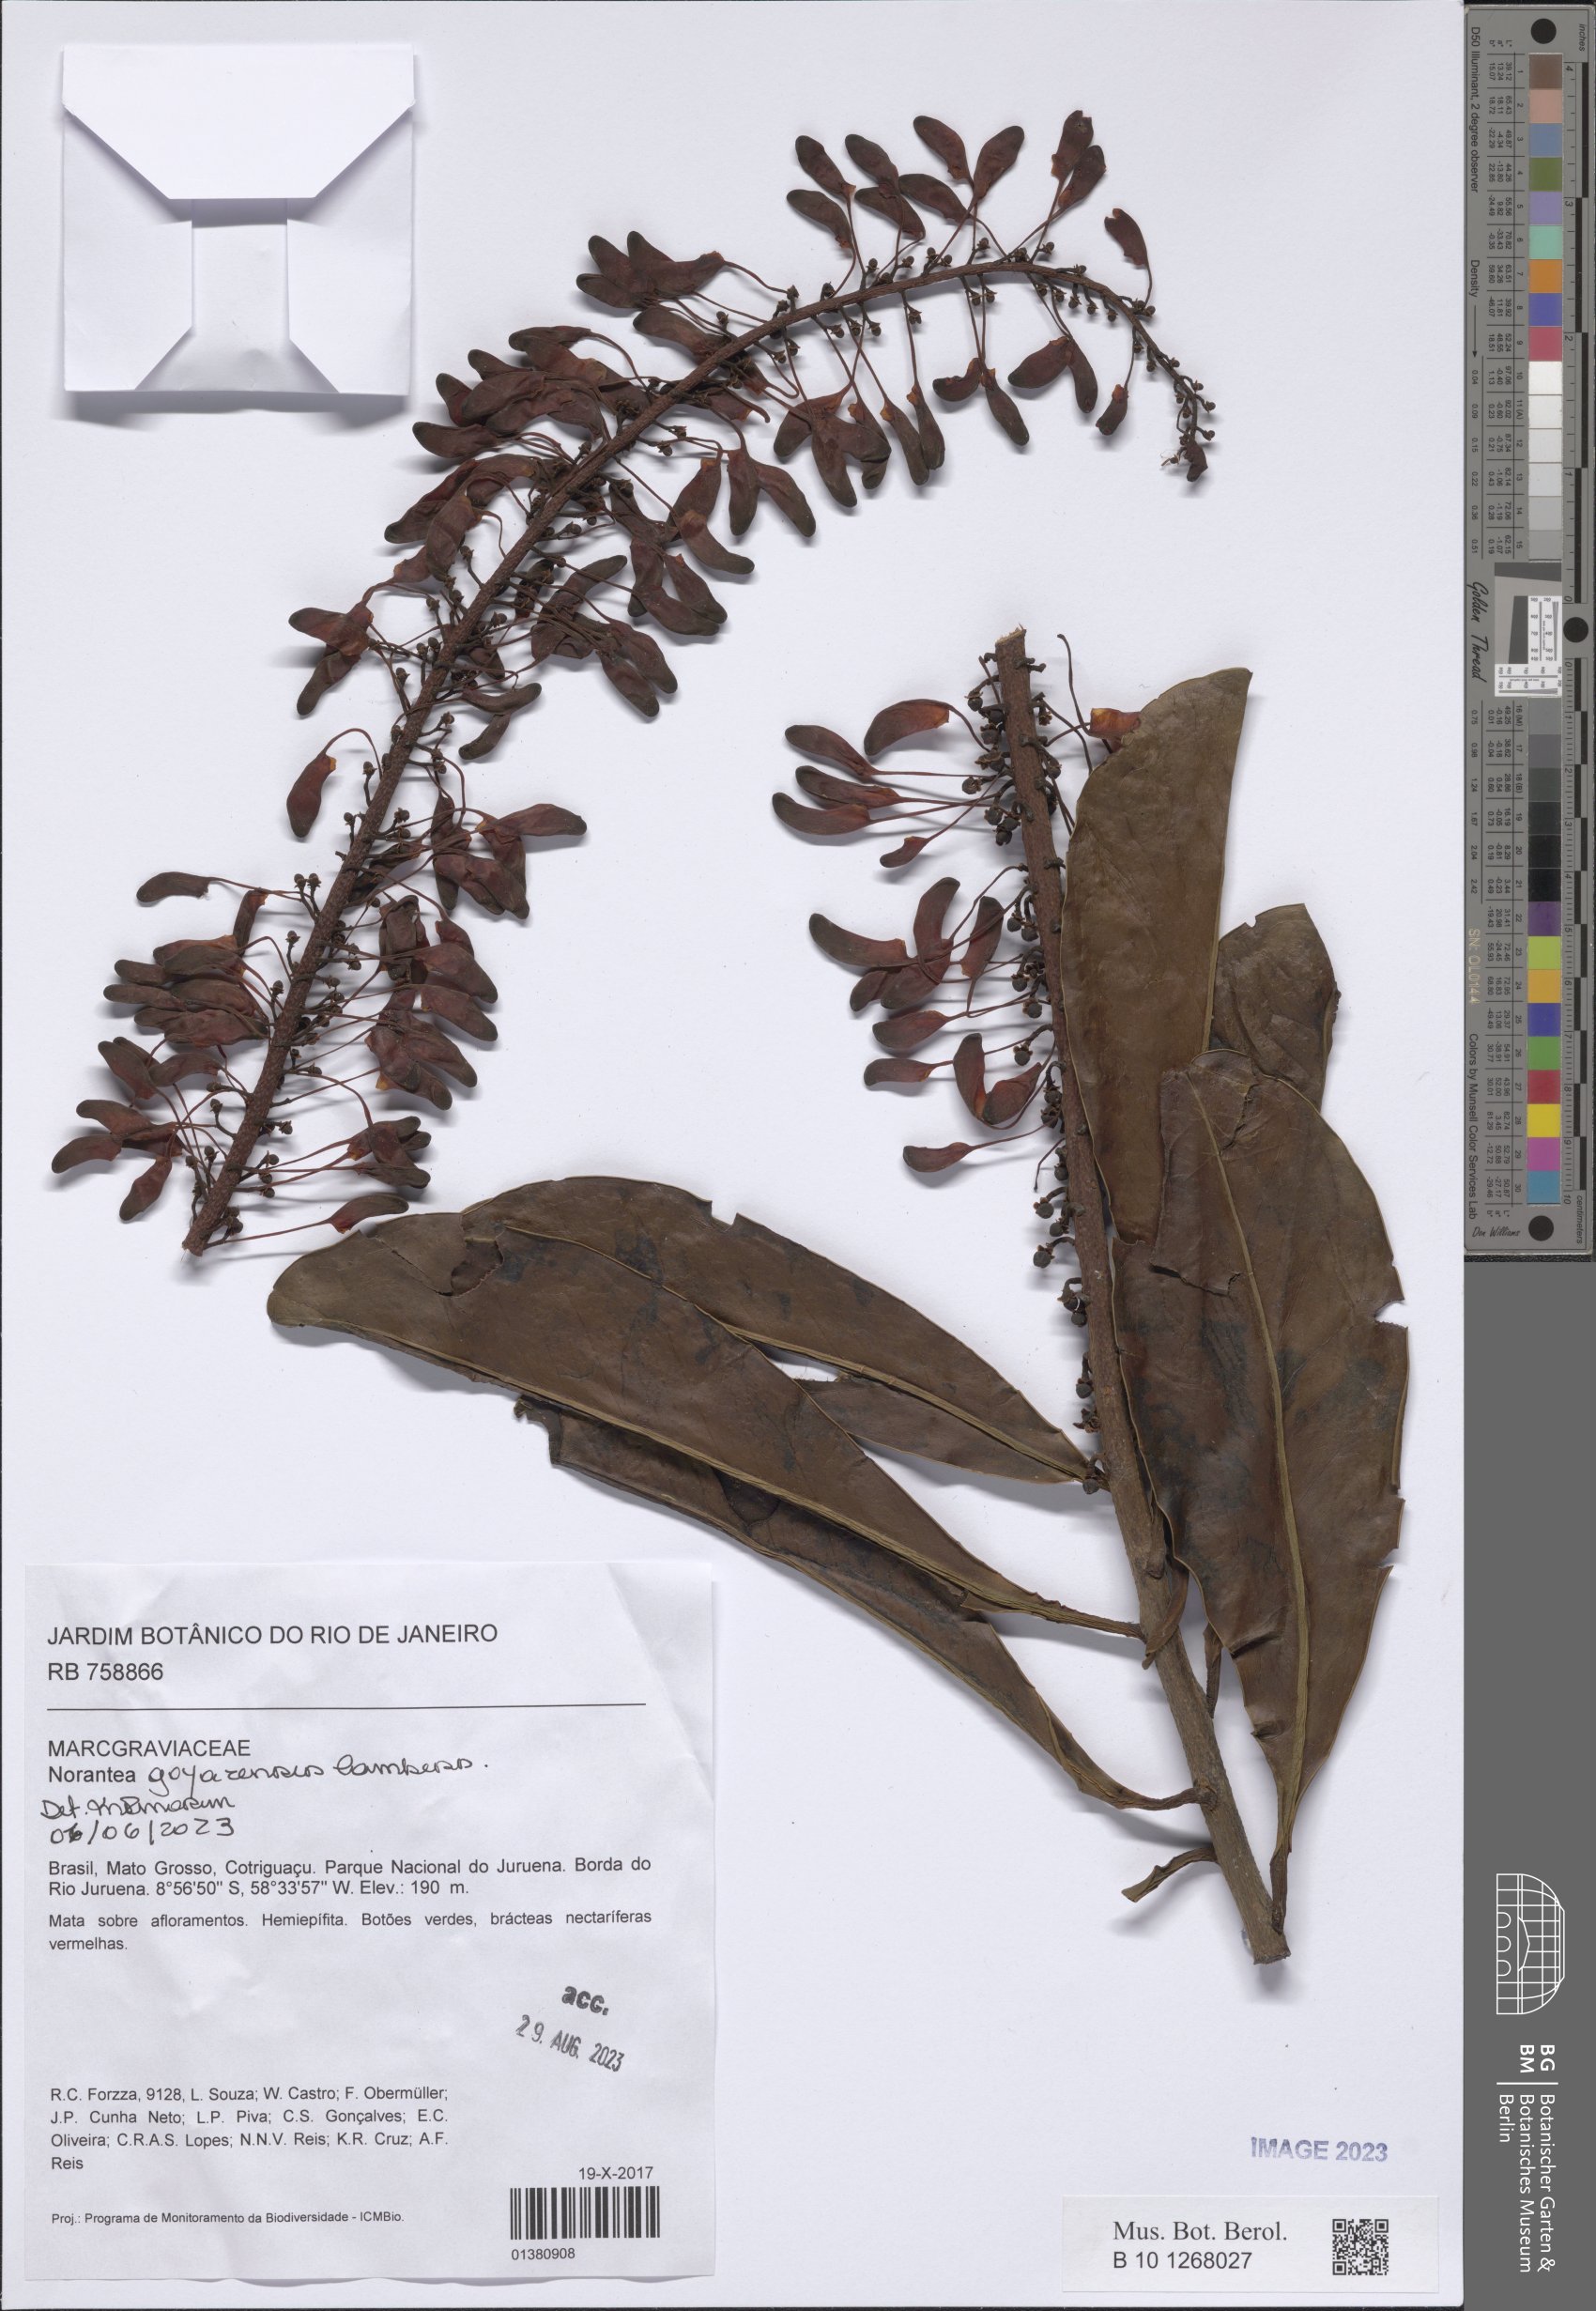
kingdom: Plantae
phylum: Tracheophyta
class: Magnoliopsida
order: Ericales
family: Marcgraviaceae
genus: Norantea
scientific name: Norantea goyazensis
